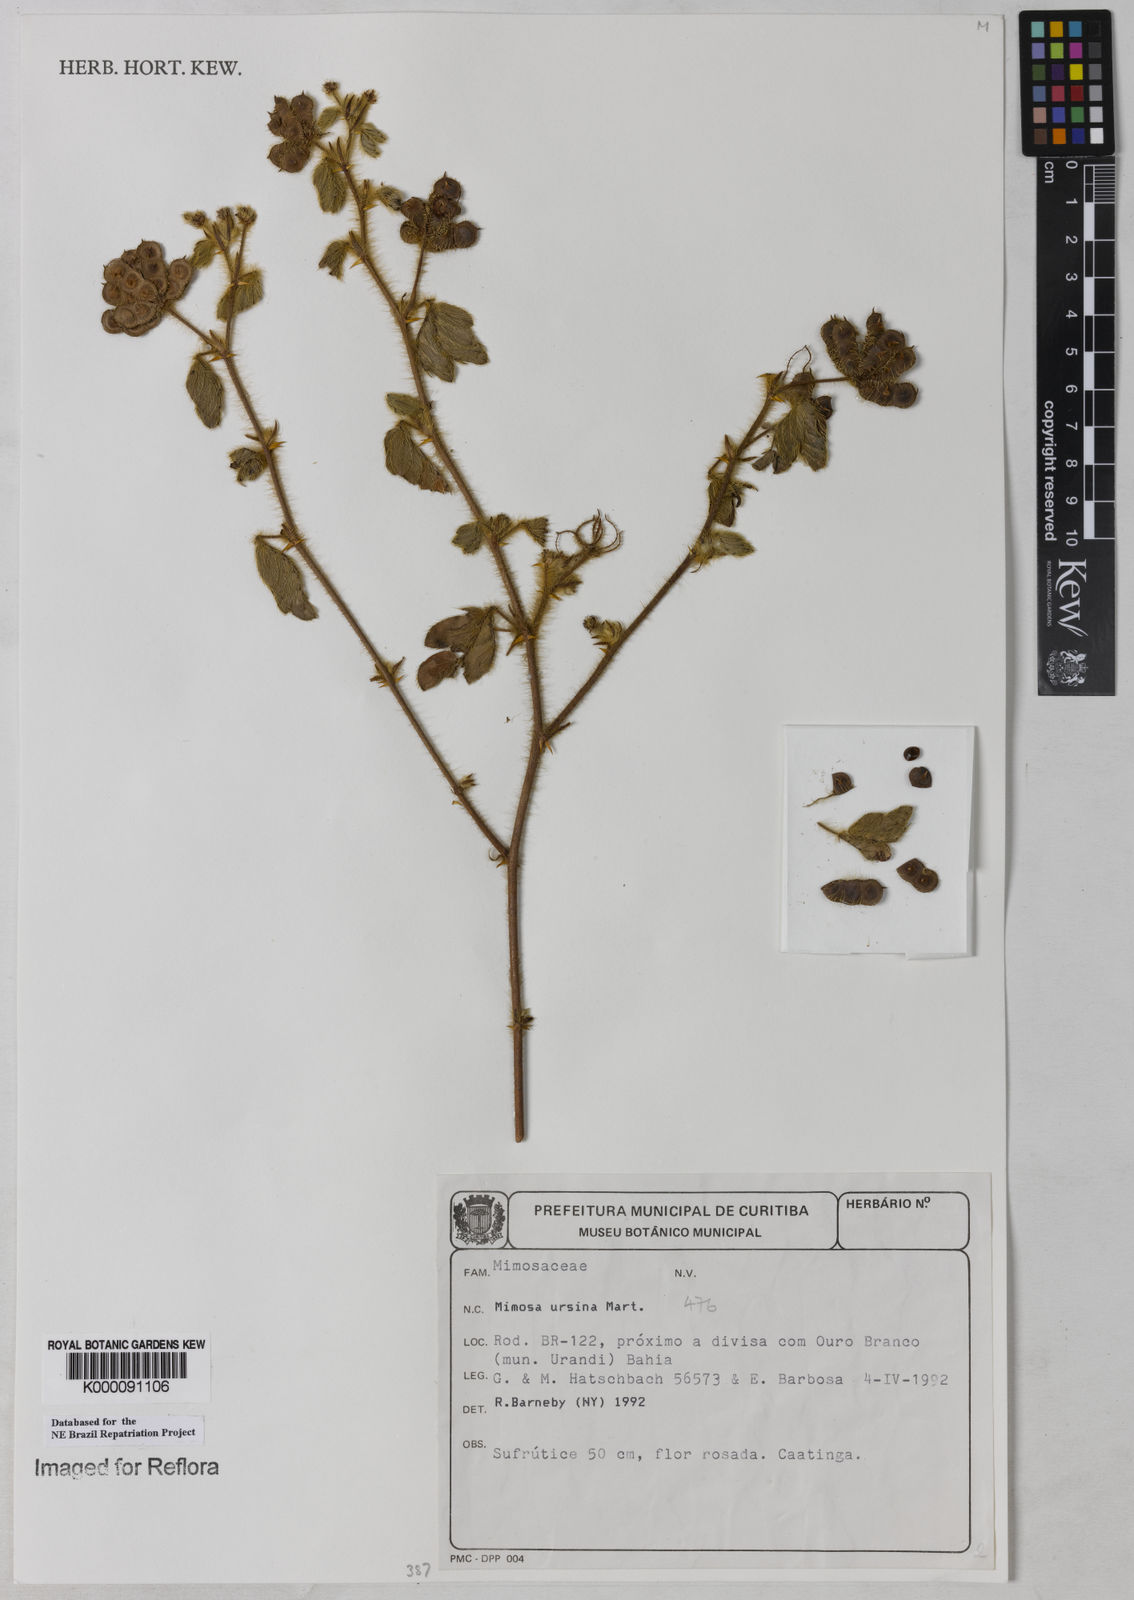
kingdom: Plantae
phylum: Tracheophyta
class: Magnoliopsida
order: Fabales
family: Fabaceae
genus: Mimosa
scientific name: Mimosa ursina
